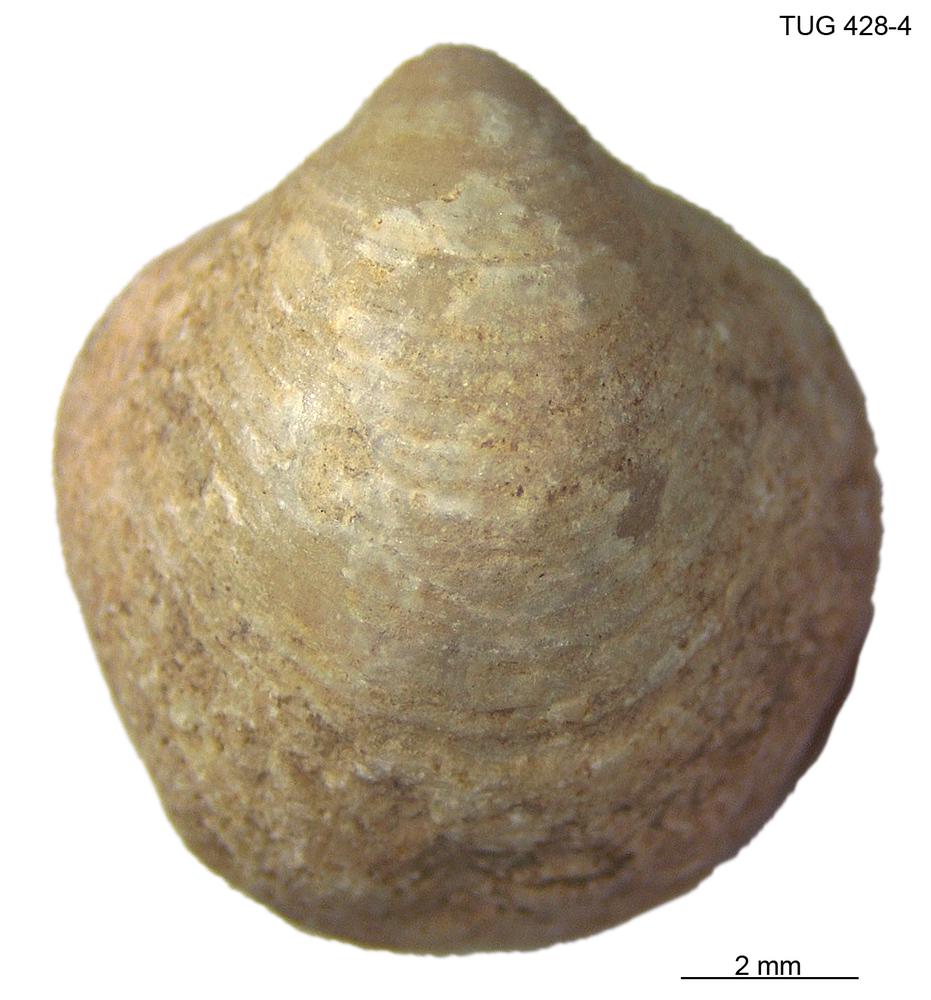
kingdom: Animalia
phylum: Brachiopoda
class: Rhynchonellata
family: Carinatinidae
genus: Spirigerina
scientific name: Spirigerina
